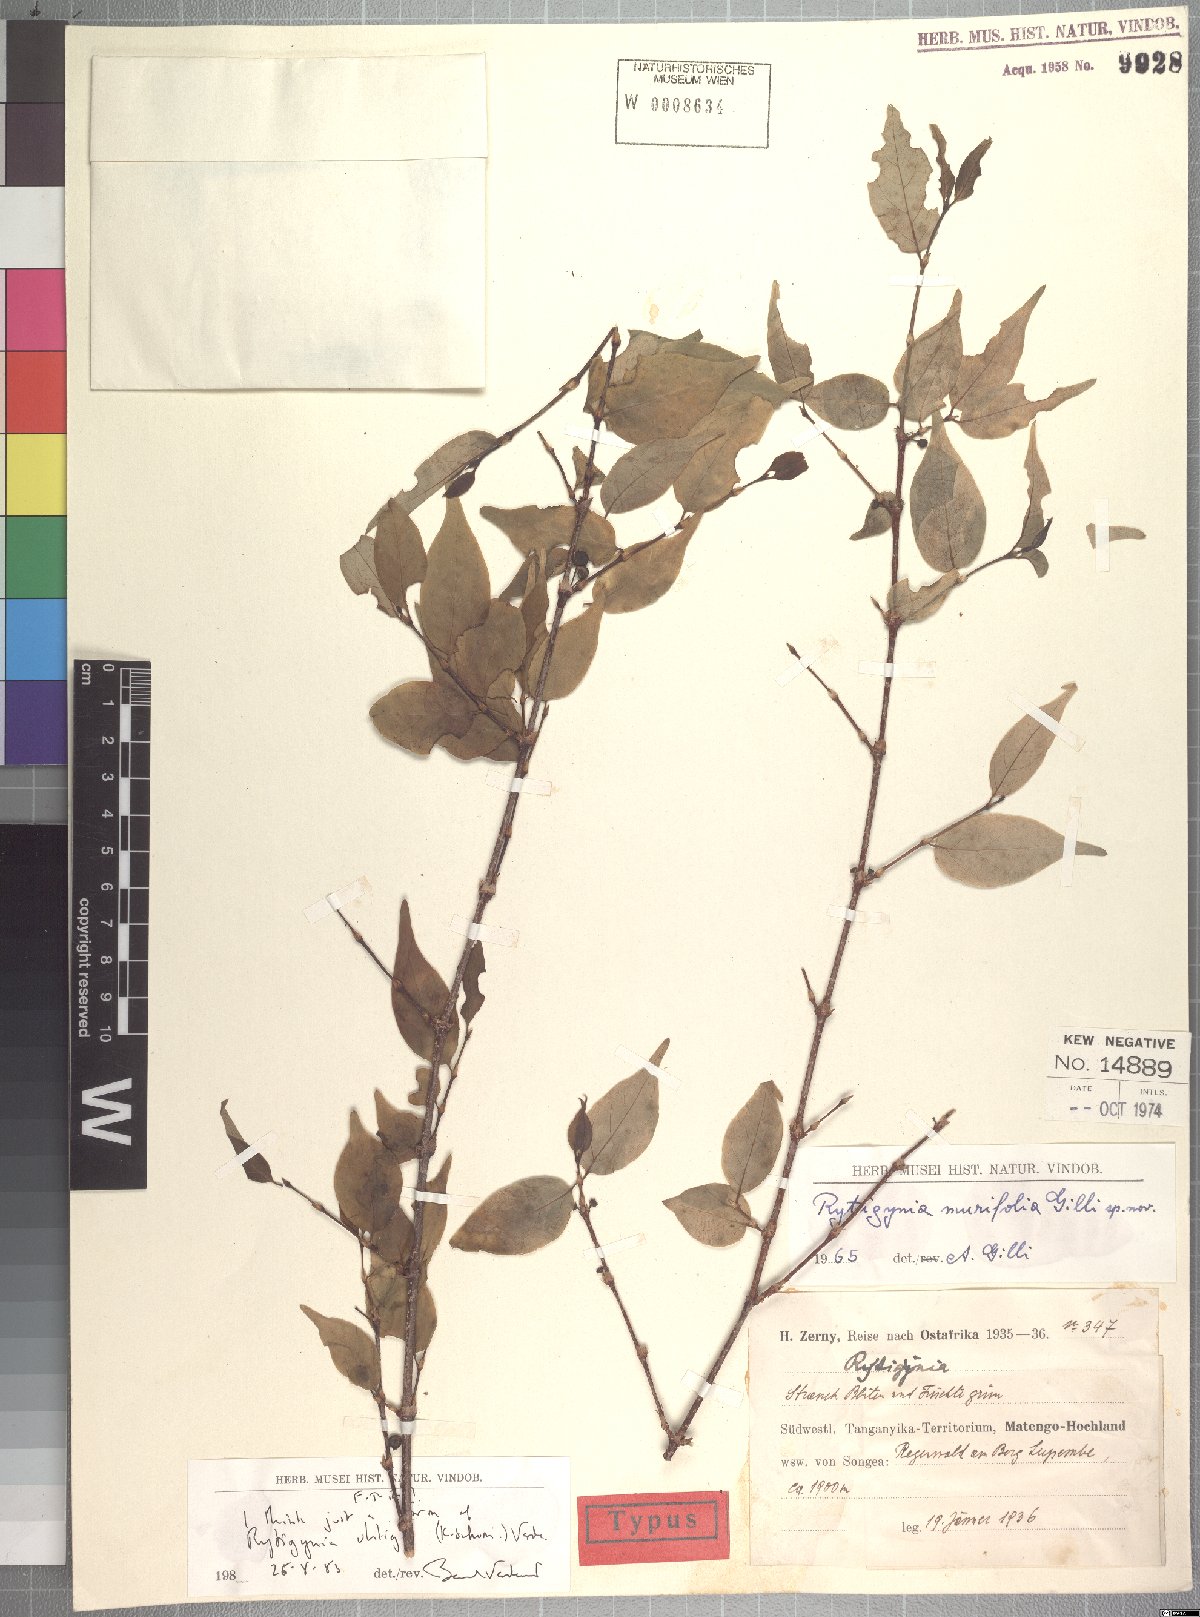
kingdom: Plantae
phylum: Tracheophyta
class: Magnoliopsida
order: Gentianales
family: Rubiaceae
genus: Rytigynia
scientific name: Rytigynia uhligii
